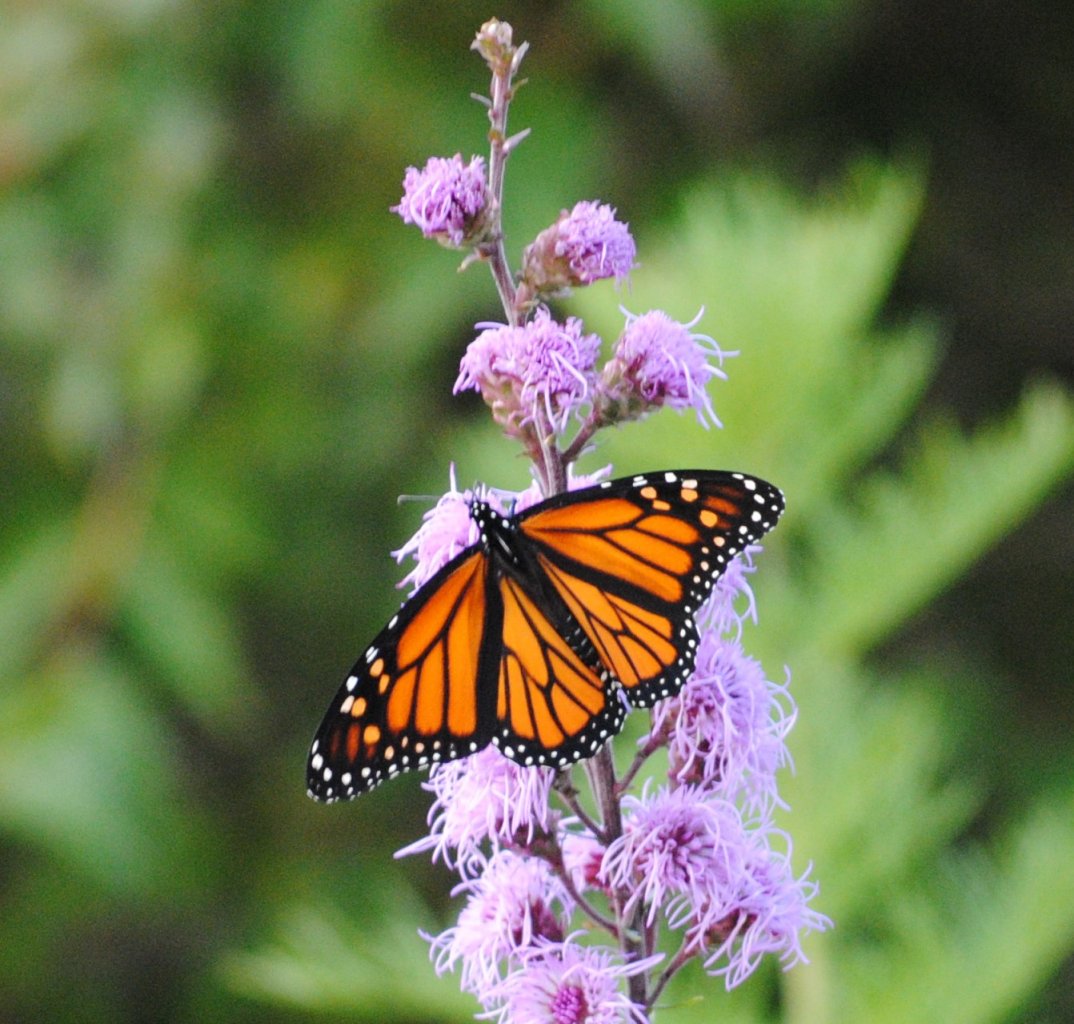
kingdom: Animalia
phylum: Arthropoda
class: Insecta
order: Lepidoptera
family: Nymphalidae
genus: Danaus
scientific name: Danaus plexippus
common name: Monarch
